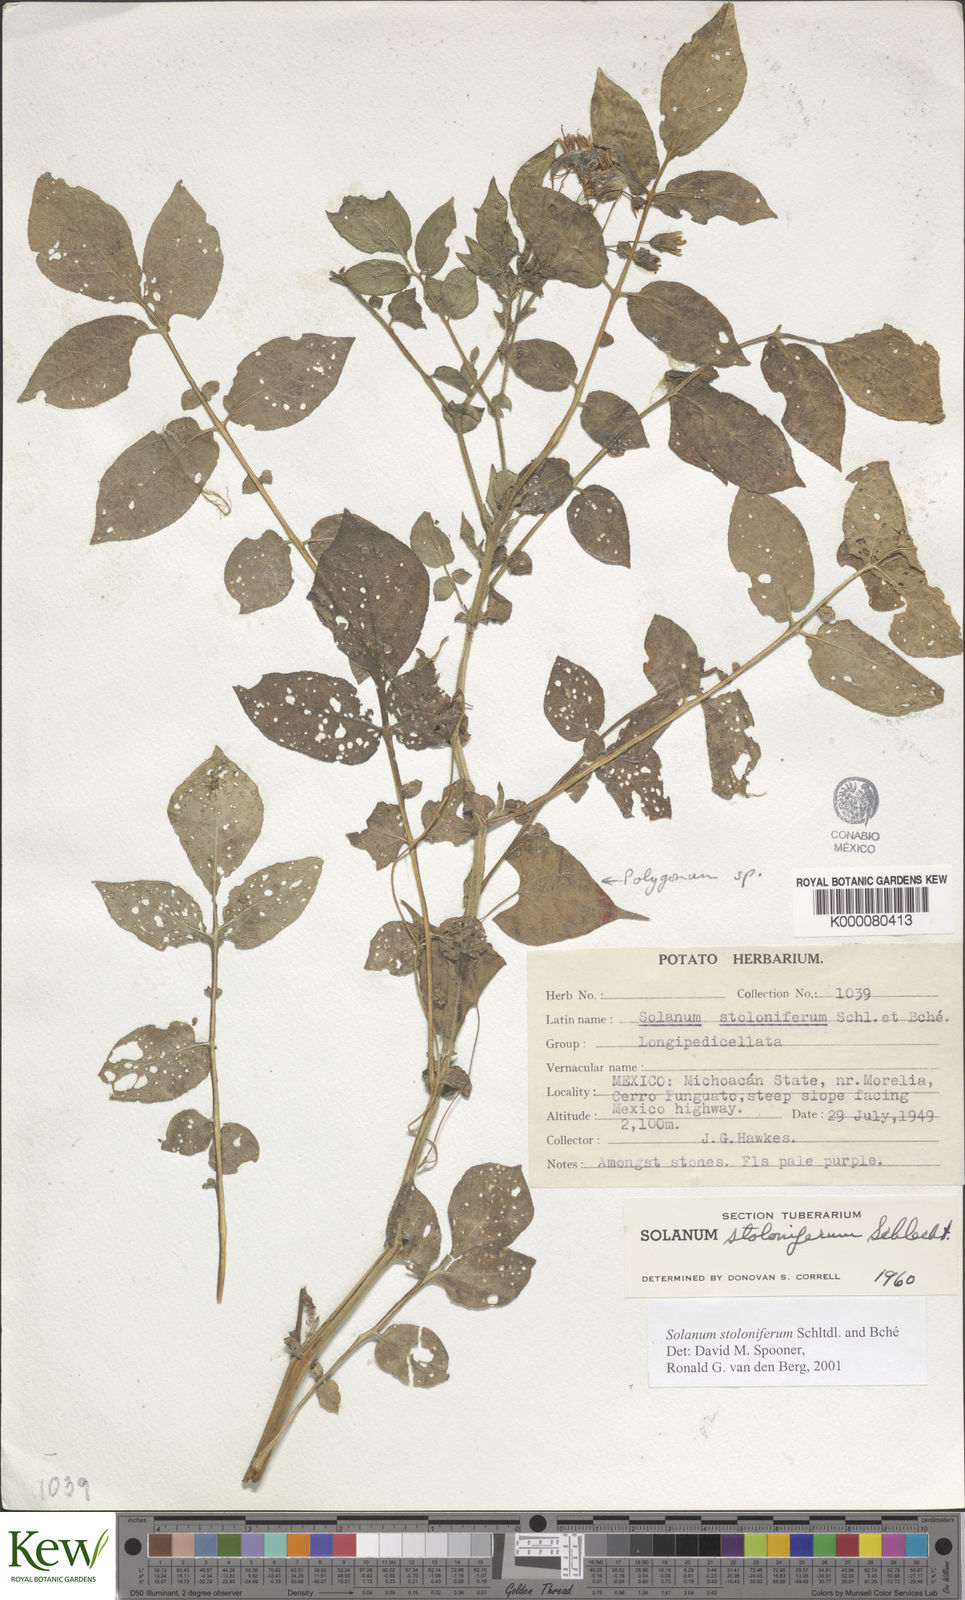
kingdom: Plantae
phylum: Tracheophyta
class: Magnoliopsida
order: Solanales
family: Solanaceae
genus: Solanum
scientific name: Solanum stoloniferum
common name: Fendler's nighshade
